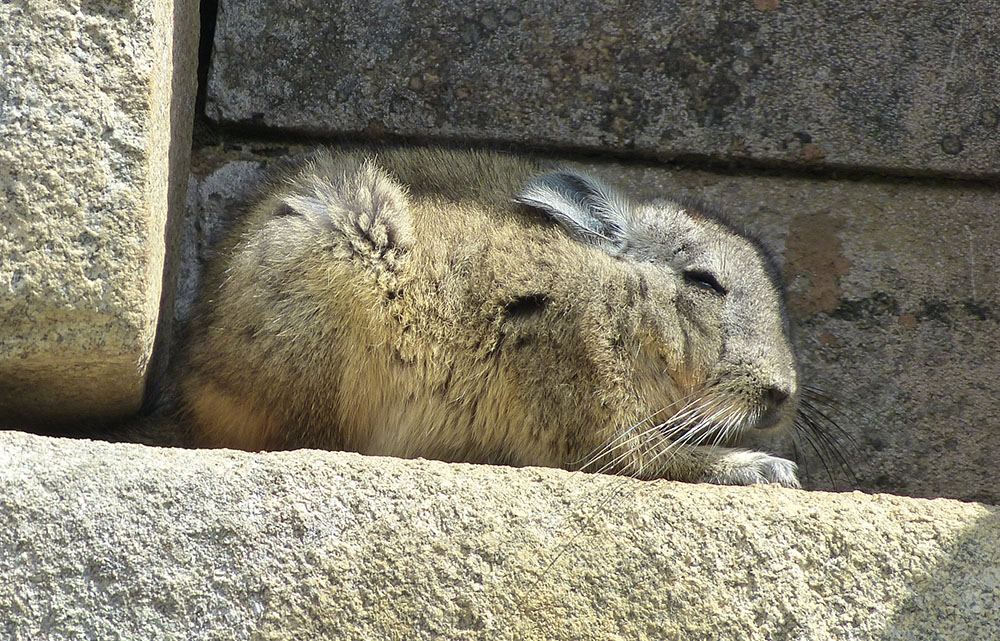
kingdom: Animalia
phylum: Chordata
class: Mammalia
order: Rodentia
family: Chinchillidae
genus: Lagidium
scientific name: Lagidium peruanum
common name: Northern viscacha
